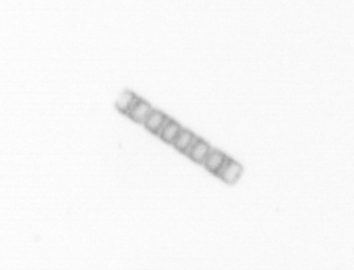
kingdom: Chromista
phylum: Ochrophyta
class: Bacillariophyceae
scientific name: Bacillariophyceae
